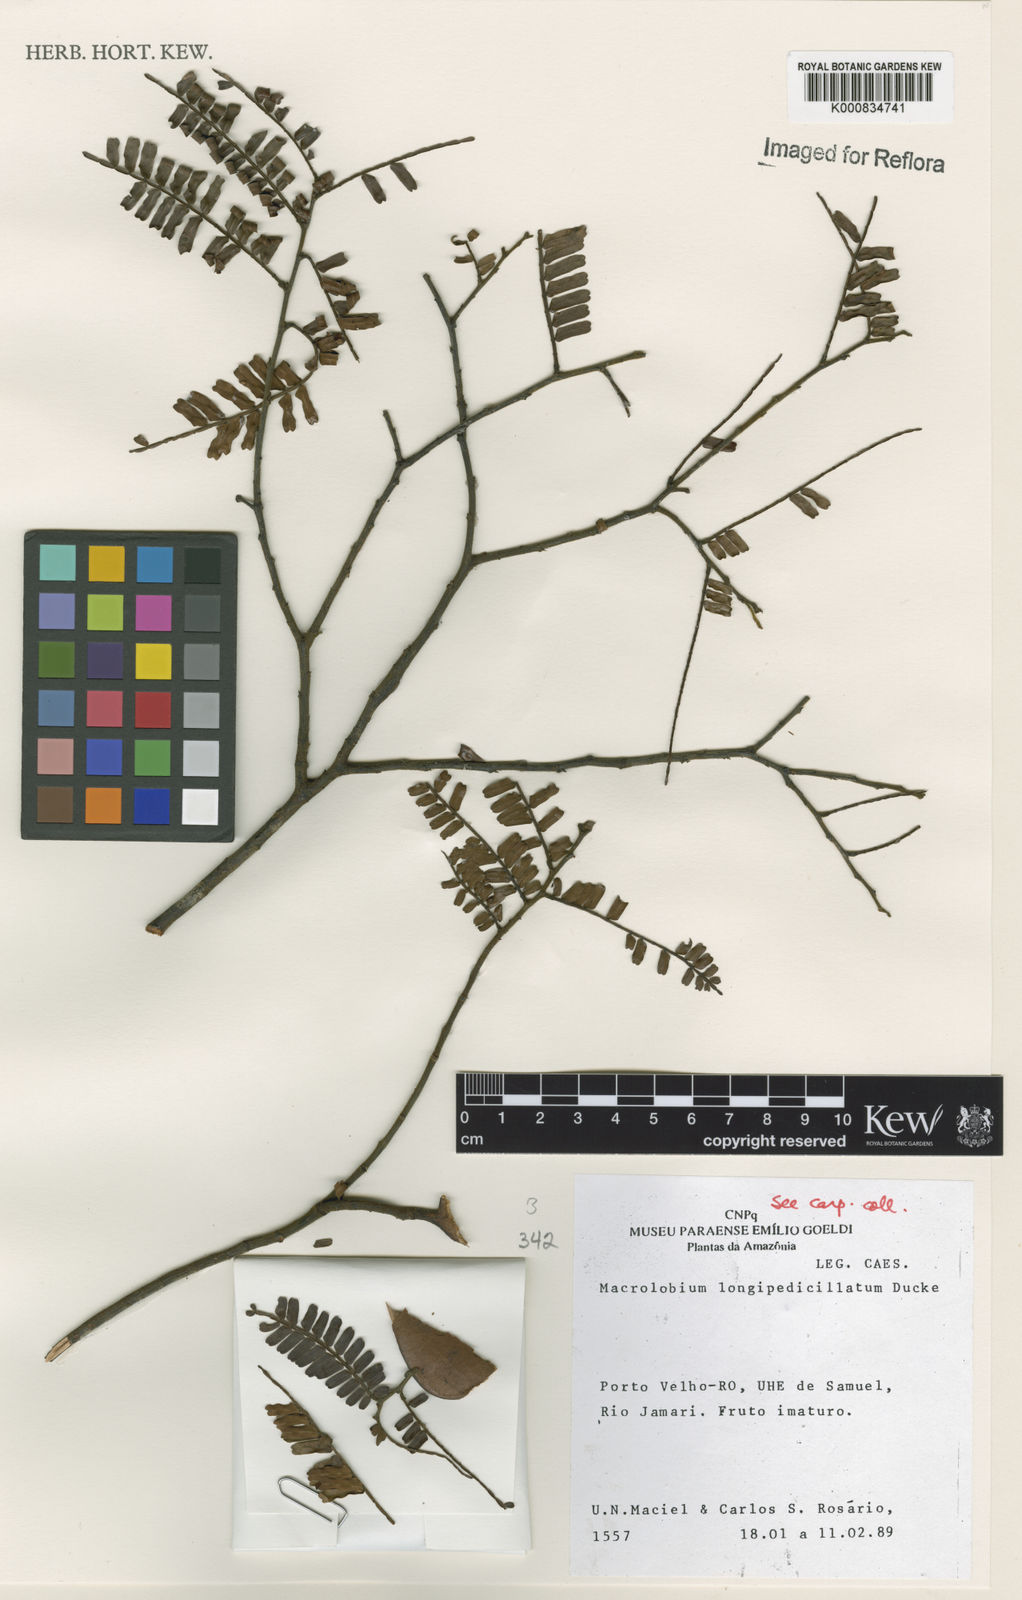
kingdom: Plantae
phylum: Tracheophyta
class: Magnoliopsida
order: Fabales
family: Fabaceae
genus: Macrolobium
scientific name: Macrolobium longipedicellatum
